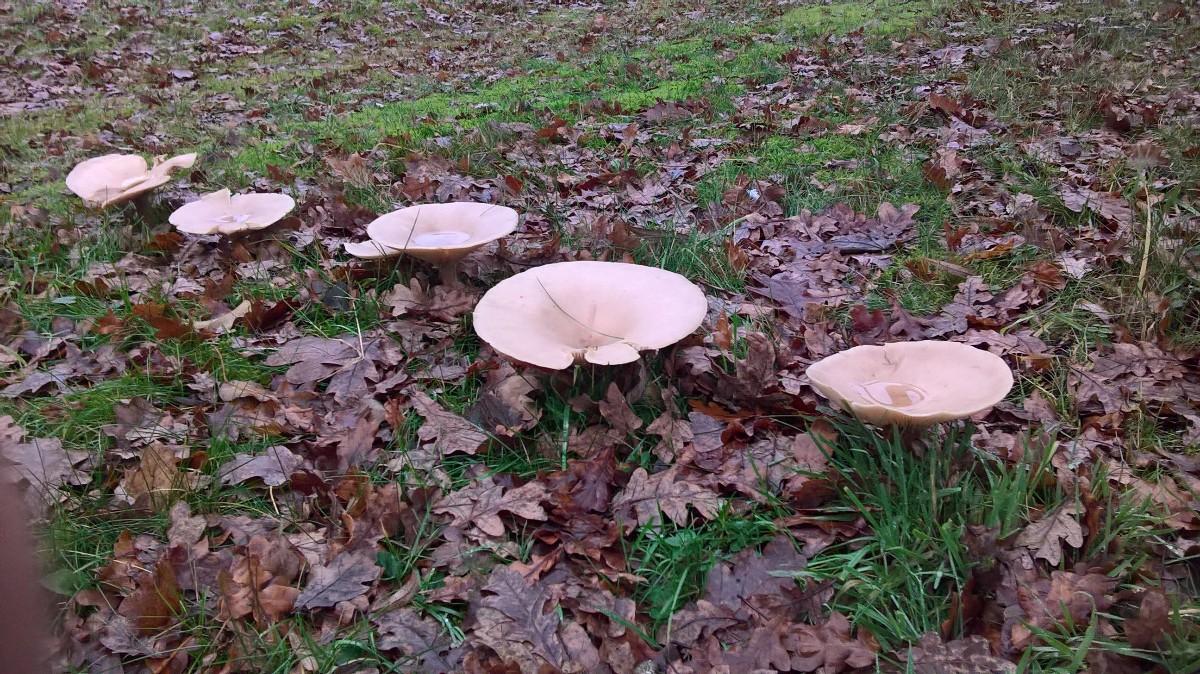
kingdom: Fungi
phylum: Basidiomycota
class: Agaricomycetes
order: Agaricales
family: Tricholomataceae
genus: Infundibulicybe
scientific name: Infundibulicybe geotropa
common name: stor tragthat
